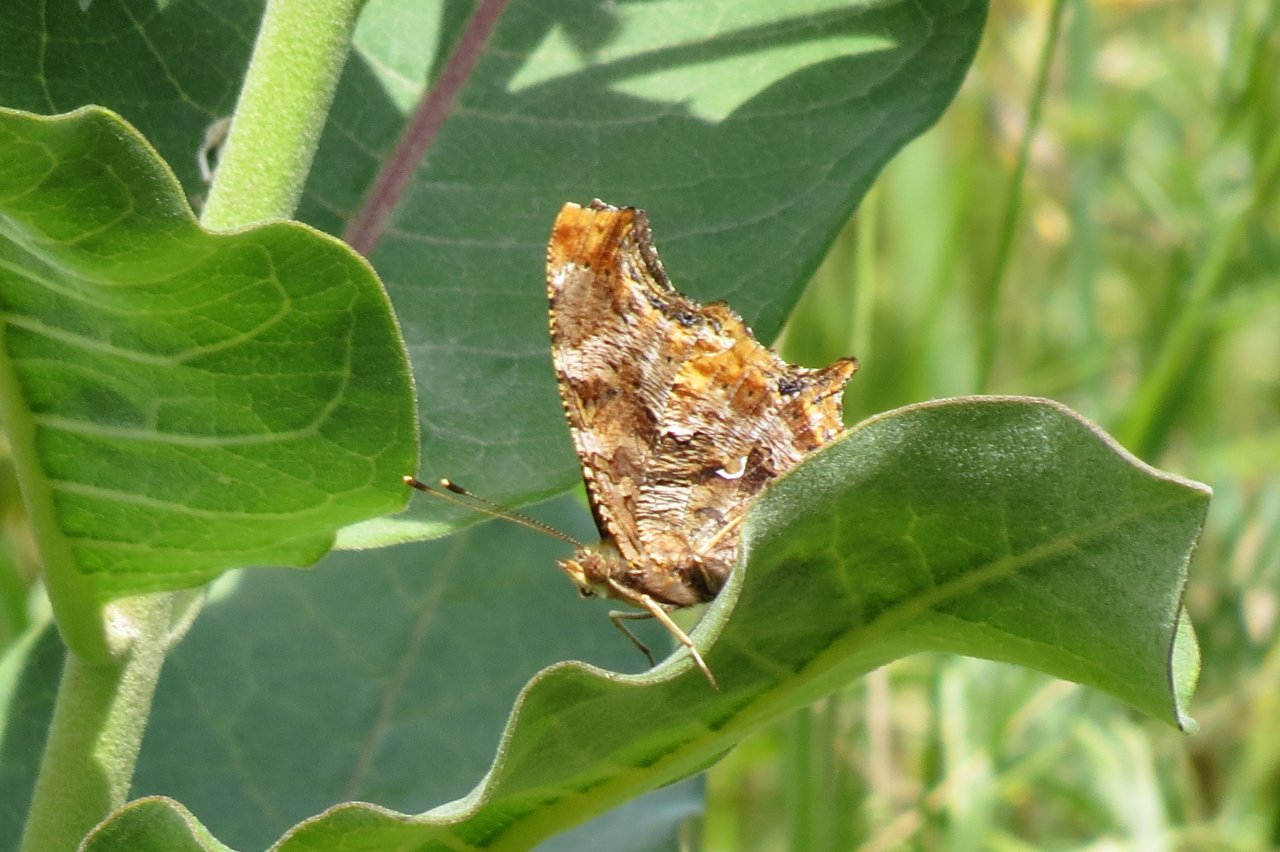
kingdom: Animalia
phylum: Arthropoda
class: Insecta
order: Lepidoptera
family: Nymphalidae
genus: Polygonia
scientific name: Polygonia comma
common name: Eastern Comma
